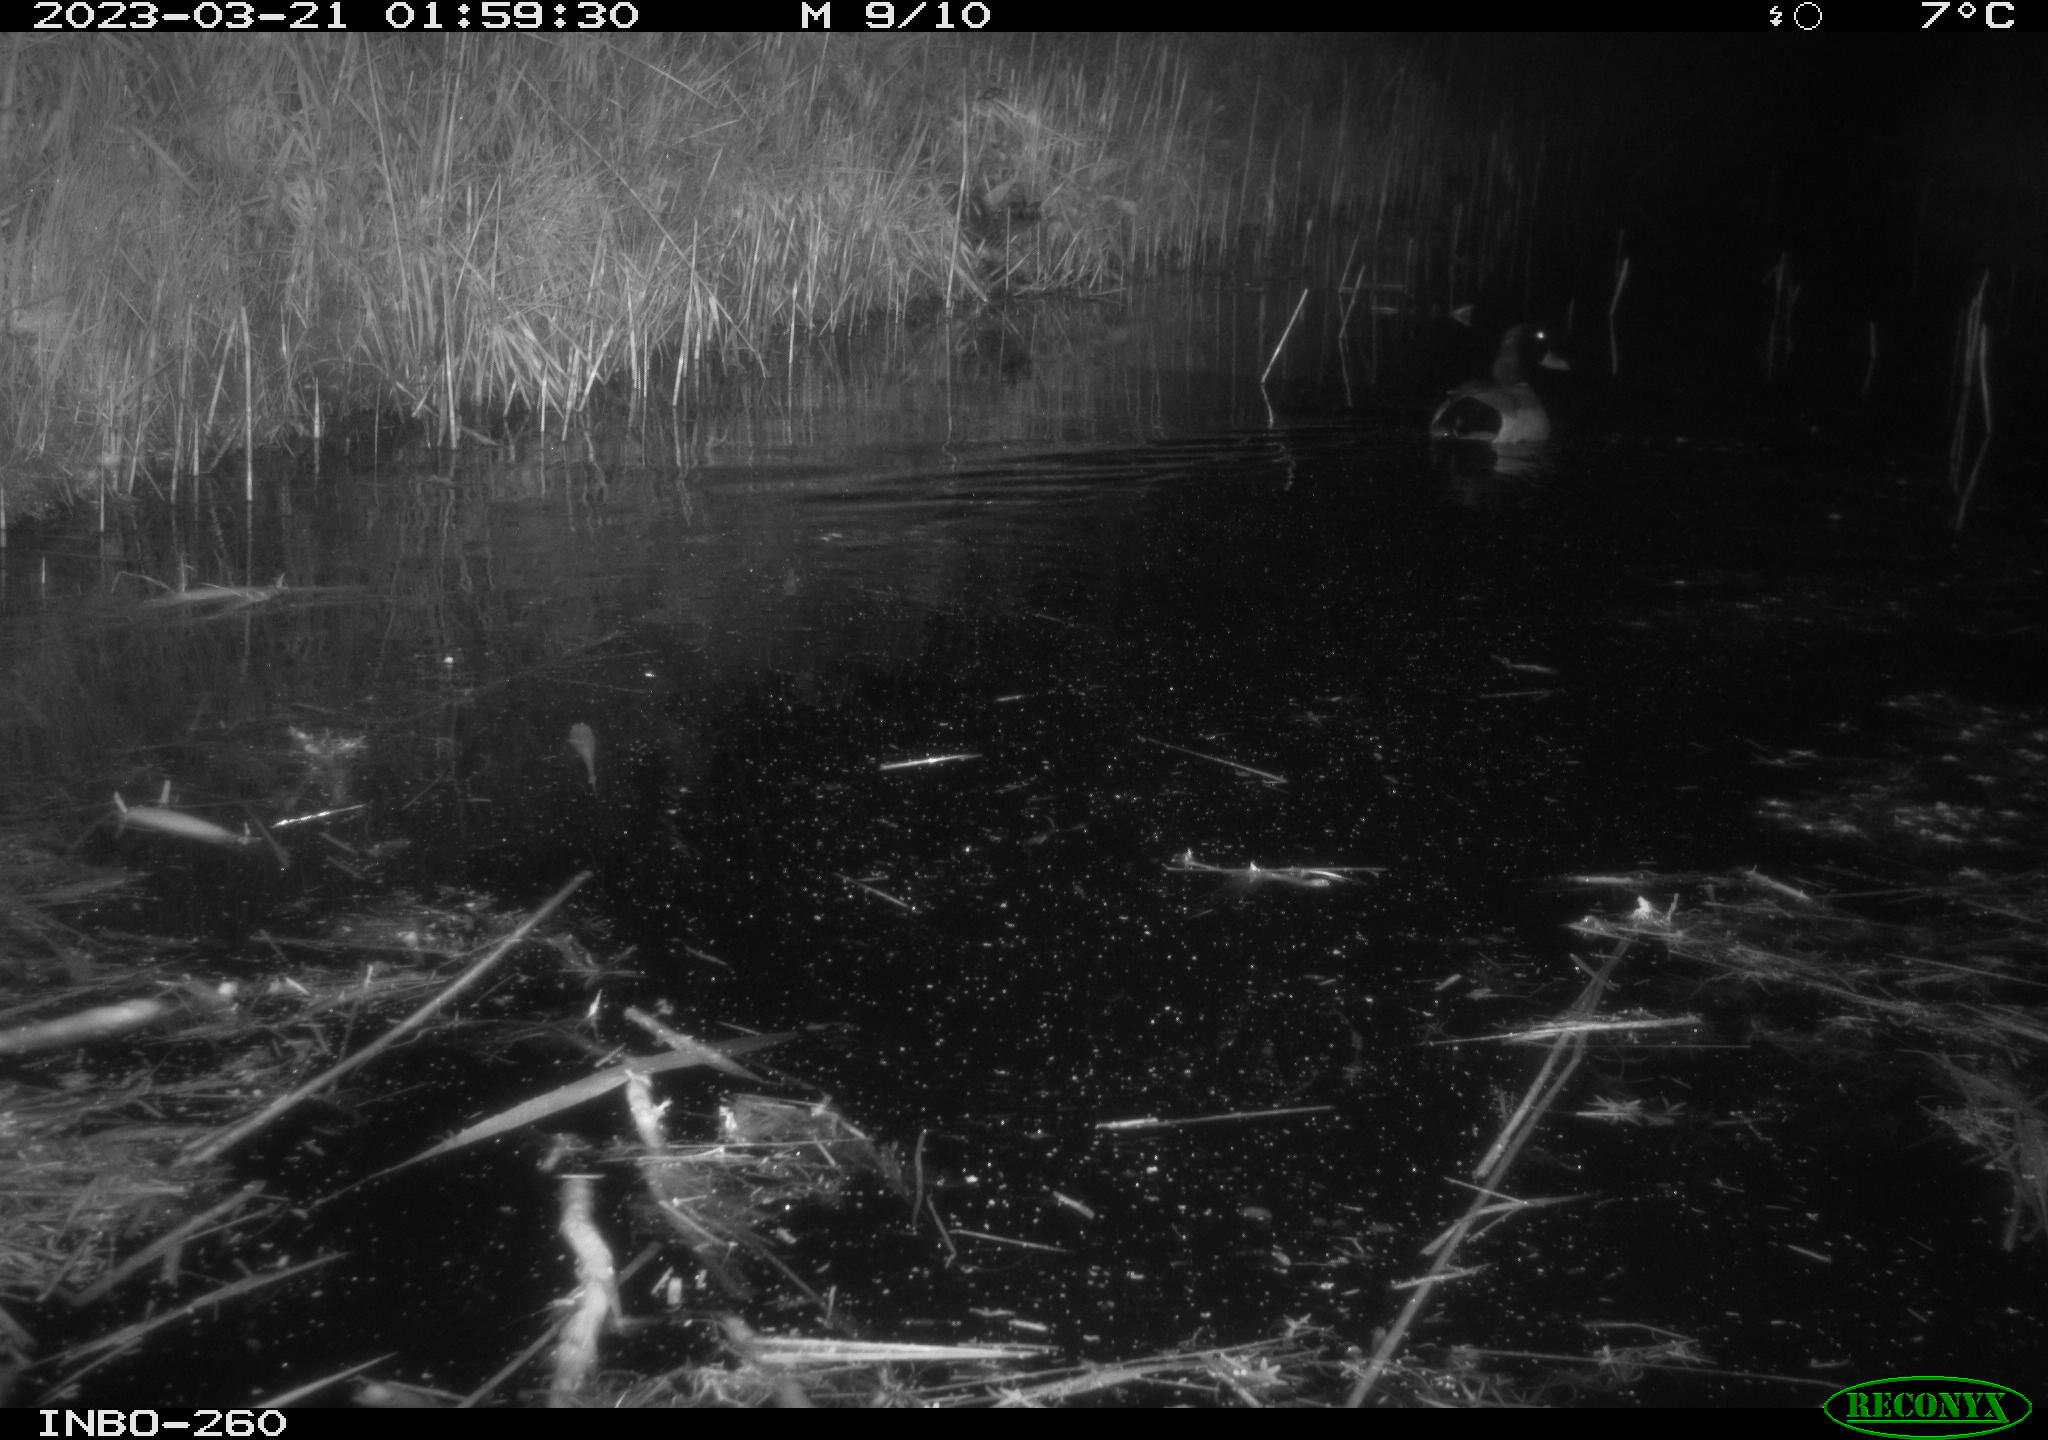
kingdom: Animalia
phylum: Chordata
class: Aves
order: Anseriformes
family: Anatidae
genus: Anas
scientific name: Anas
